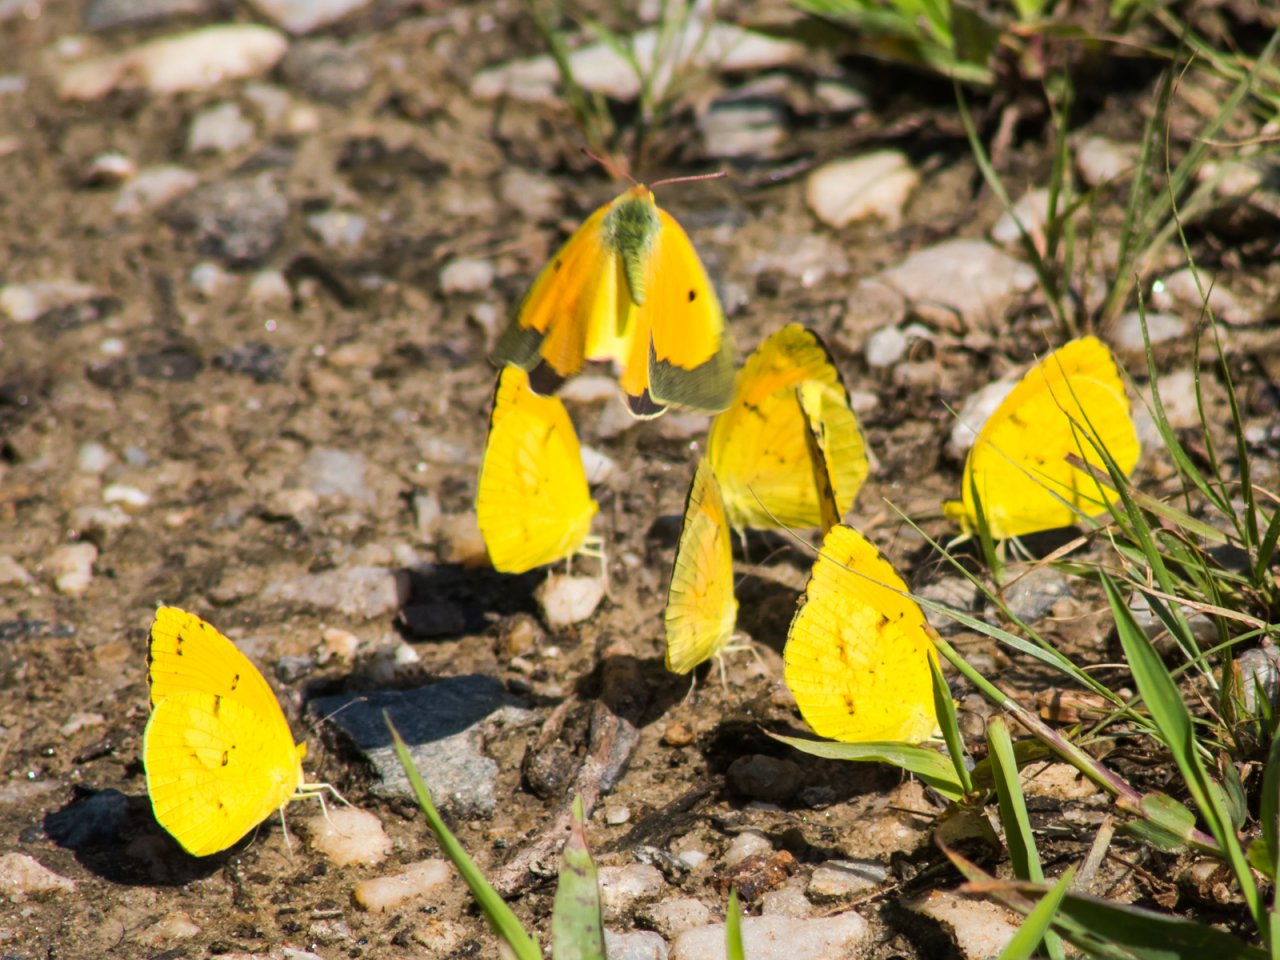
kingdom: Animalia
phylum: Arthropoda
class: Insecta
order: Lepidoptera
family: Pieridae
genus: Abaeis
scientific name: Abaeis nicippe
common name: Sleepy Orange
